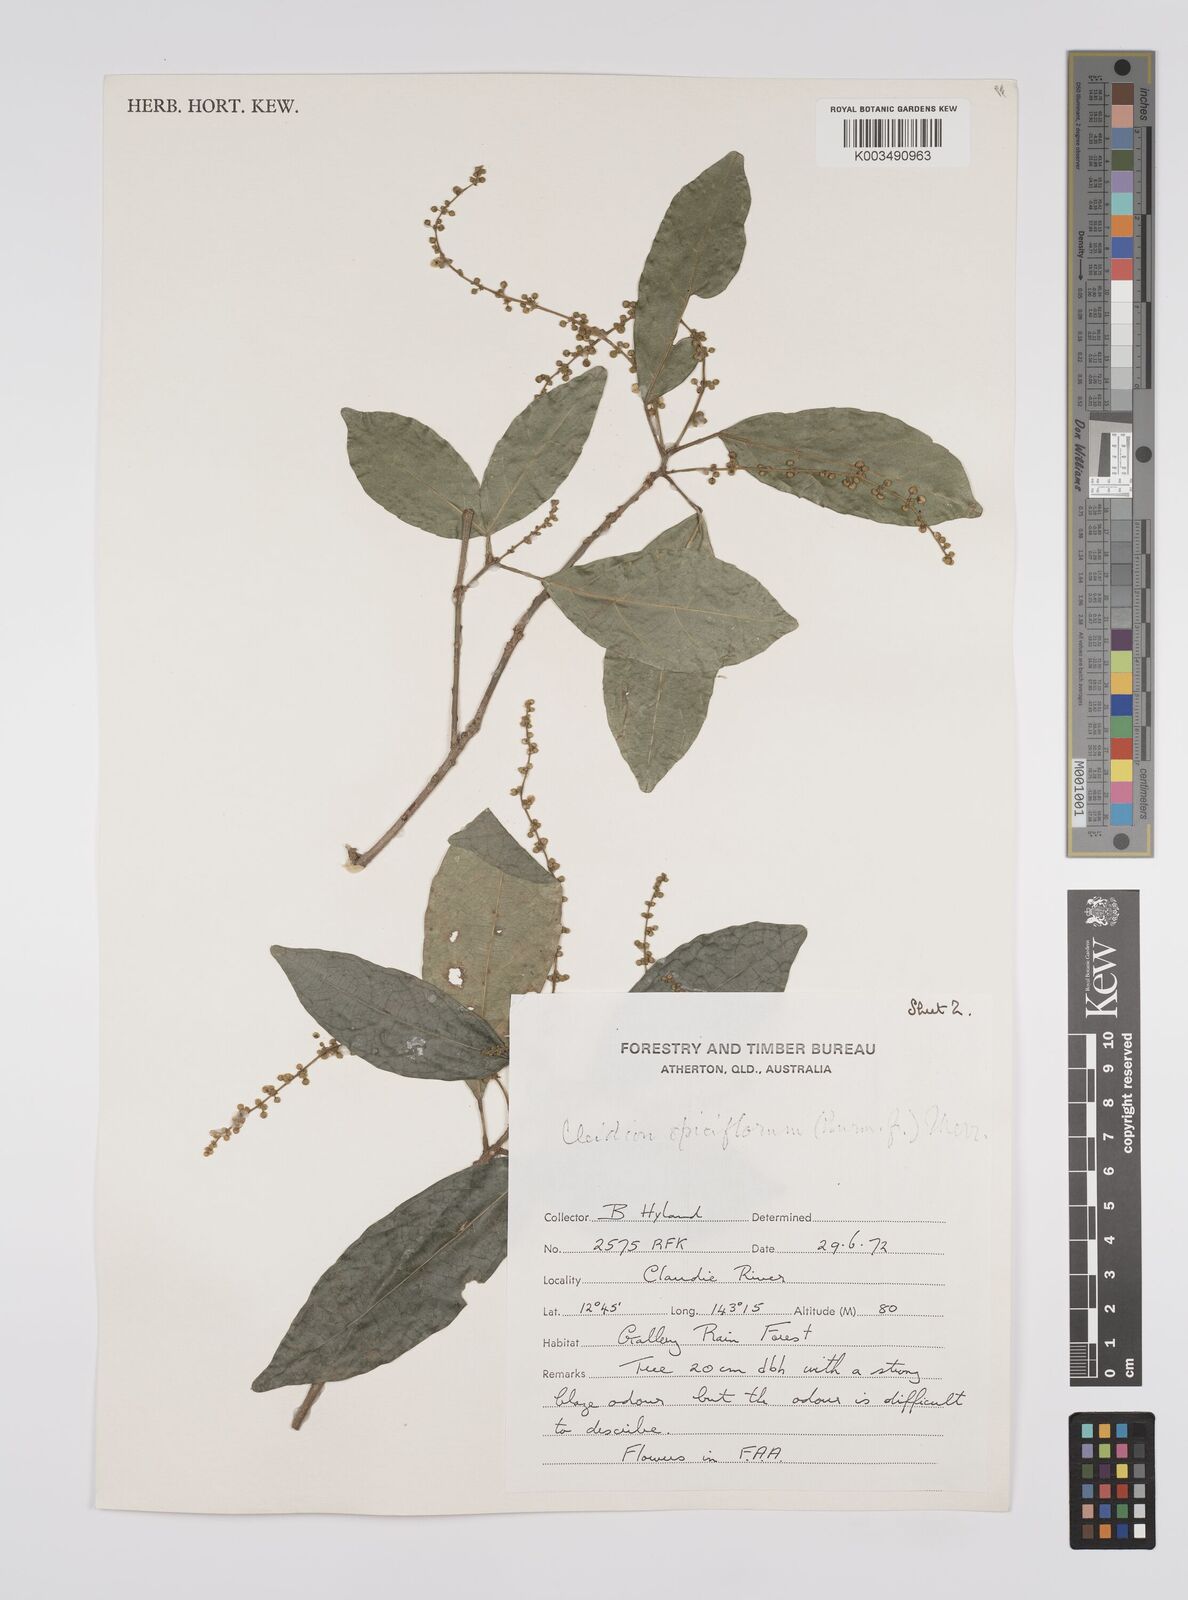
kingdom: Plantae
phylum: Tracheophyta
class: Magnoliopsida
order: Malpighiales
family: Euphorbiaceae
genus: Cleidion
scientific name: Cleidion javanicum
